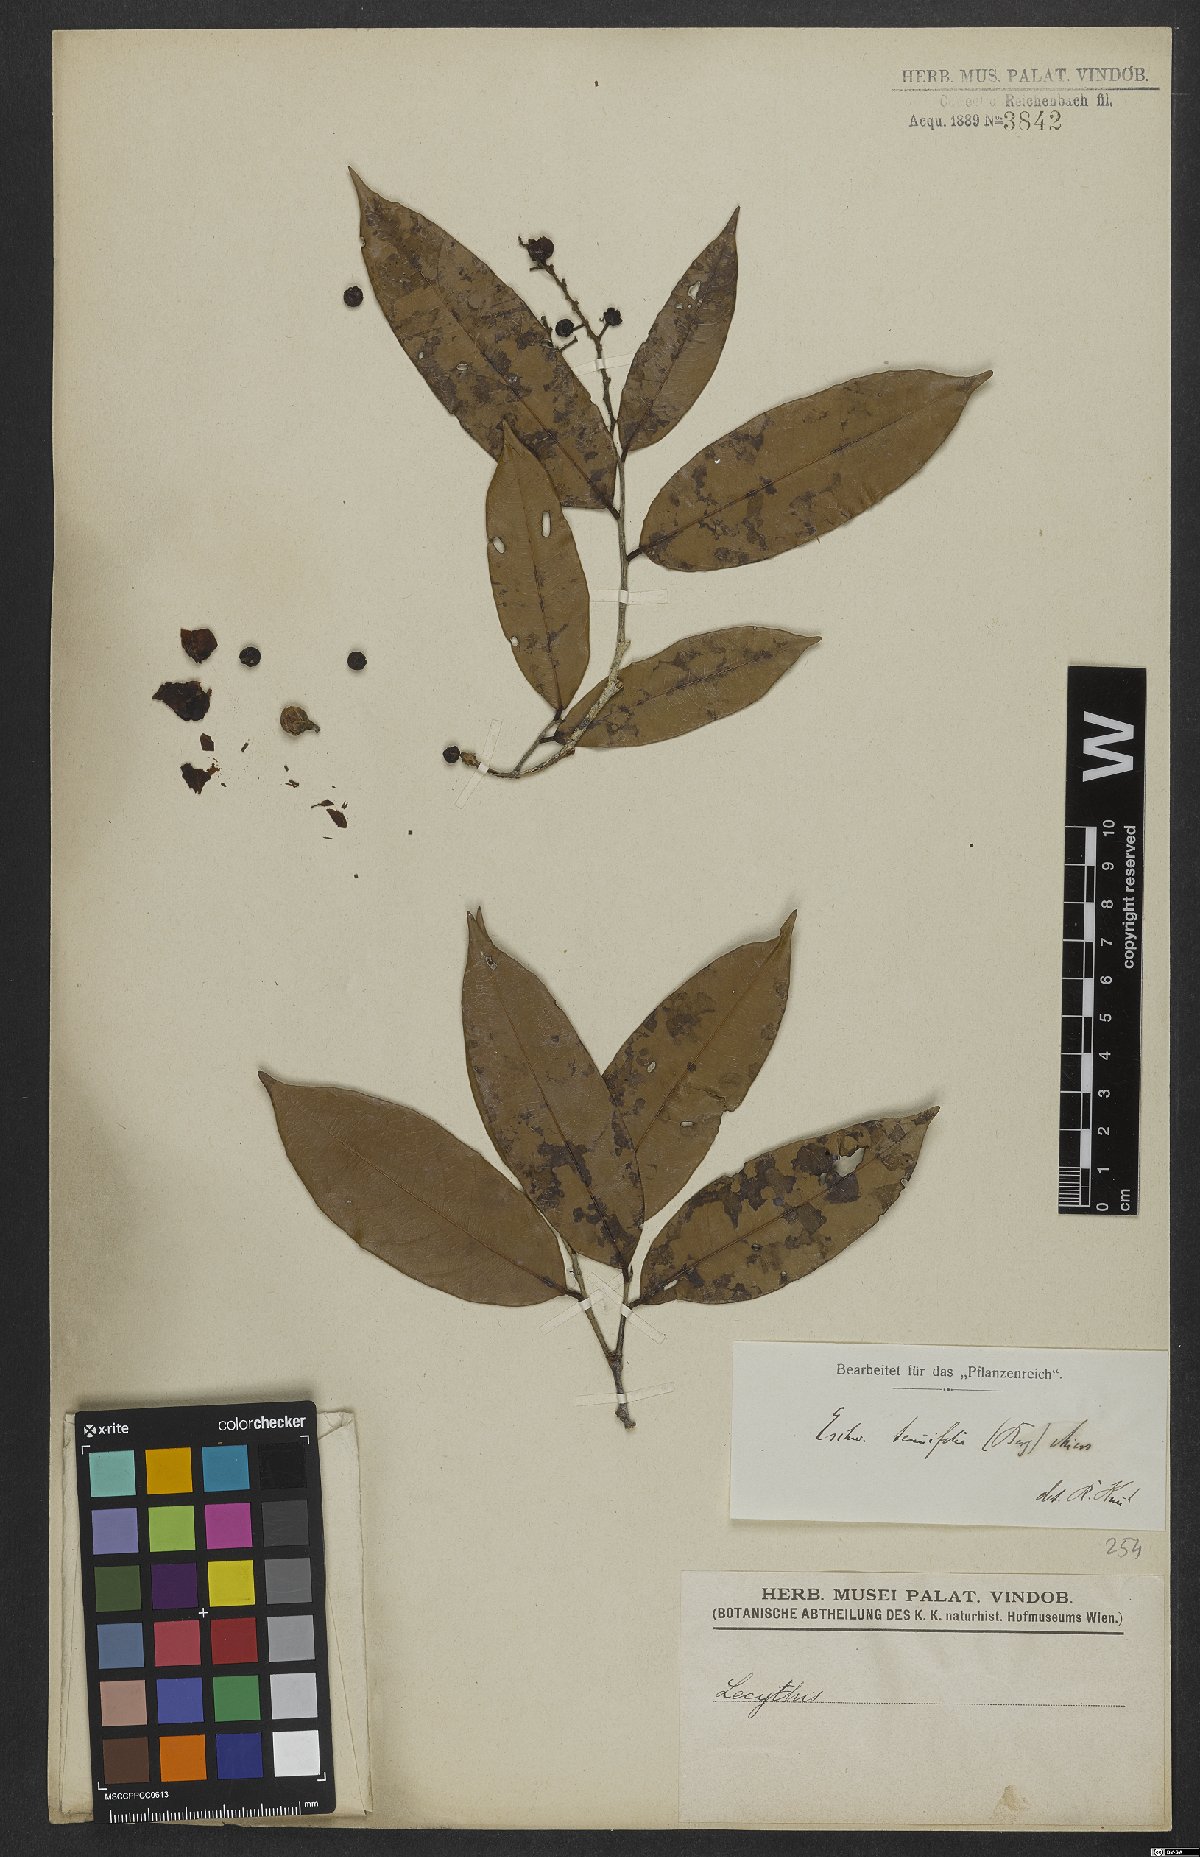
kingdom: Plantae
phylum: Tracheophyta
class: Magnoliopsida
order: Ericales
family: Lecythidaceae
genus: Eschweilera
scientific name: Eschweilera tenuifolia
